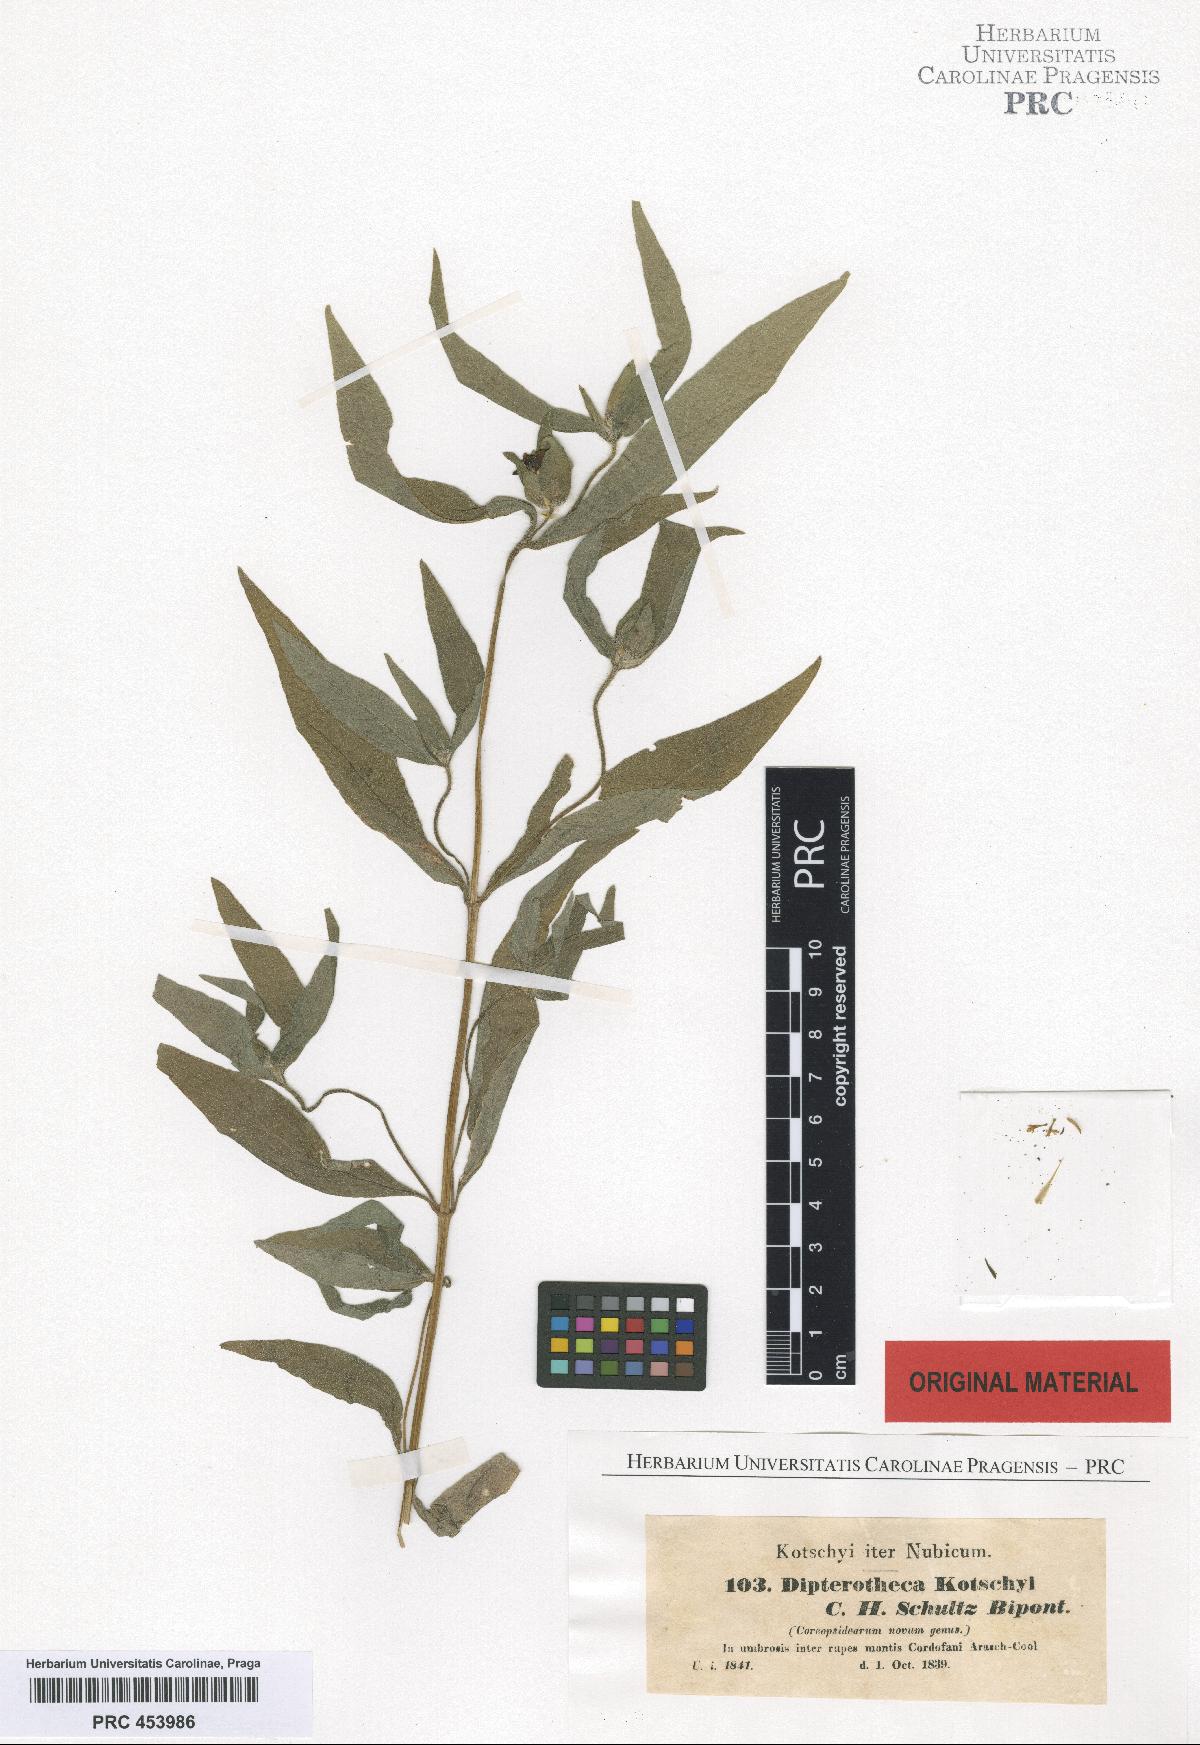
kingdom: Plantae
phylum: Tracheophyta
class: Magnoliopsida
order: Asterales
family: Asteraceae
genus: Aspilia
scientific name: Aspilia kotschyi
